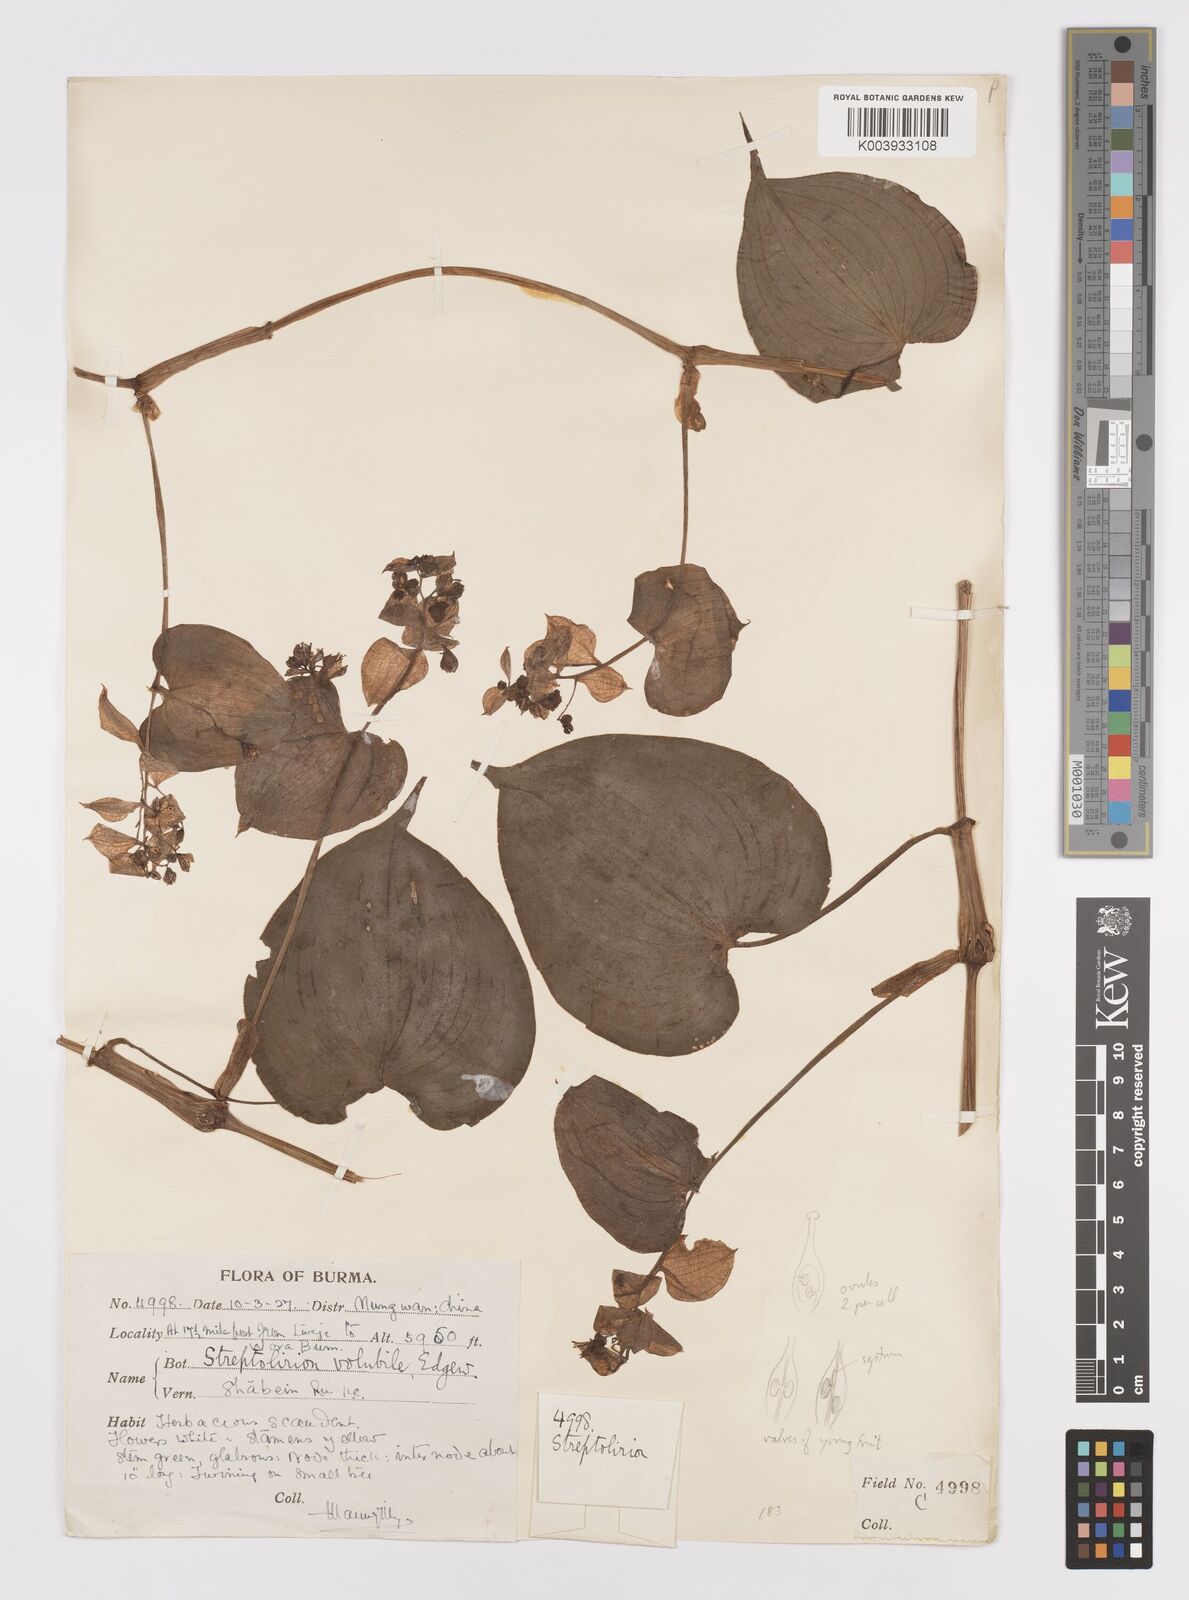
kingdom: Plantae
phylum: Tracheophyta
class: Liliopsida
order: Commelinales
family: Commelinaceae
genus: Streptolirion
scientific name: Streptolirion volubile
